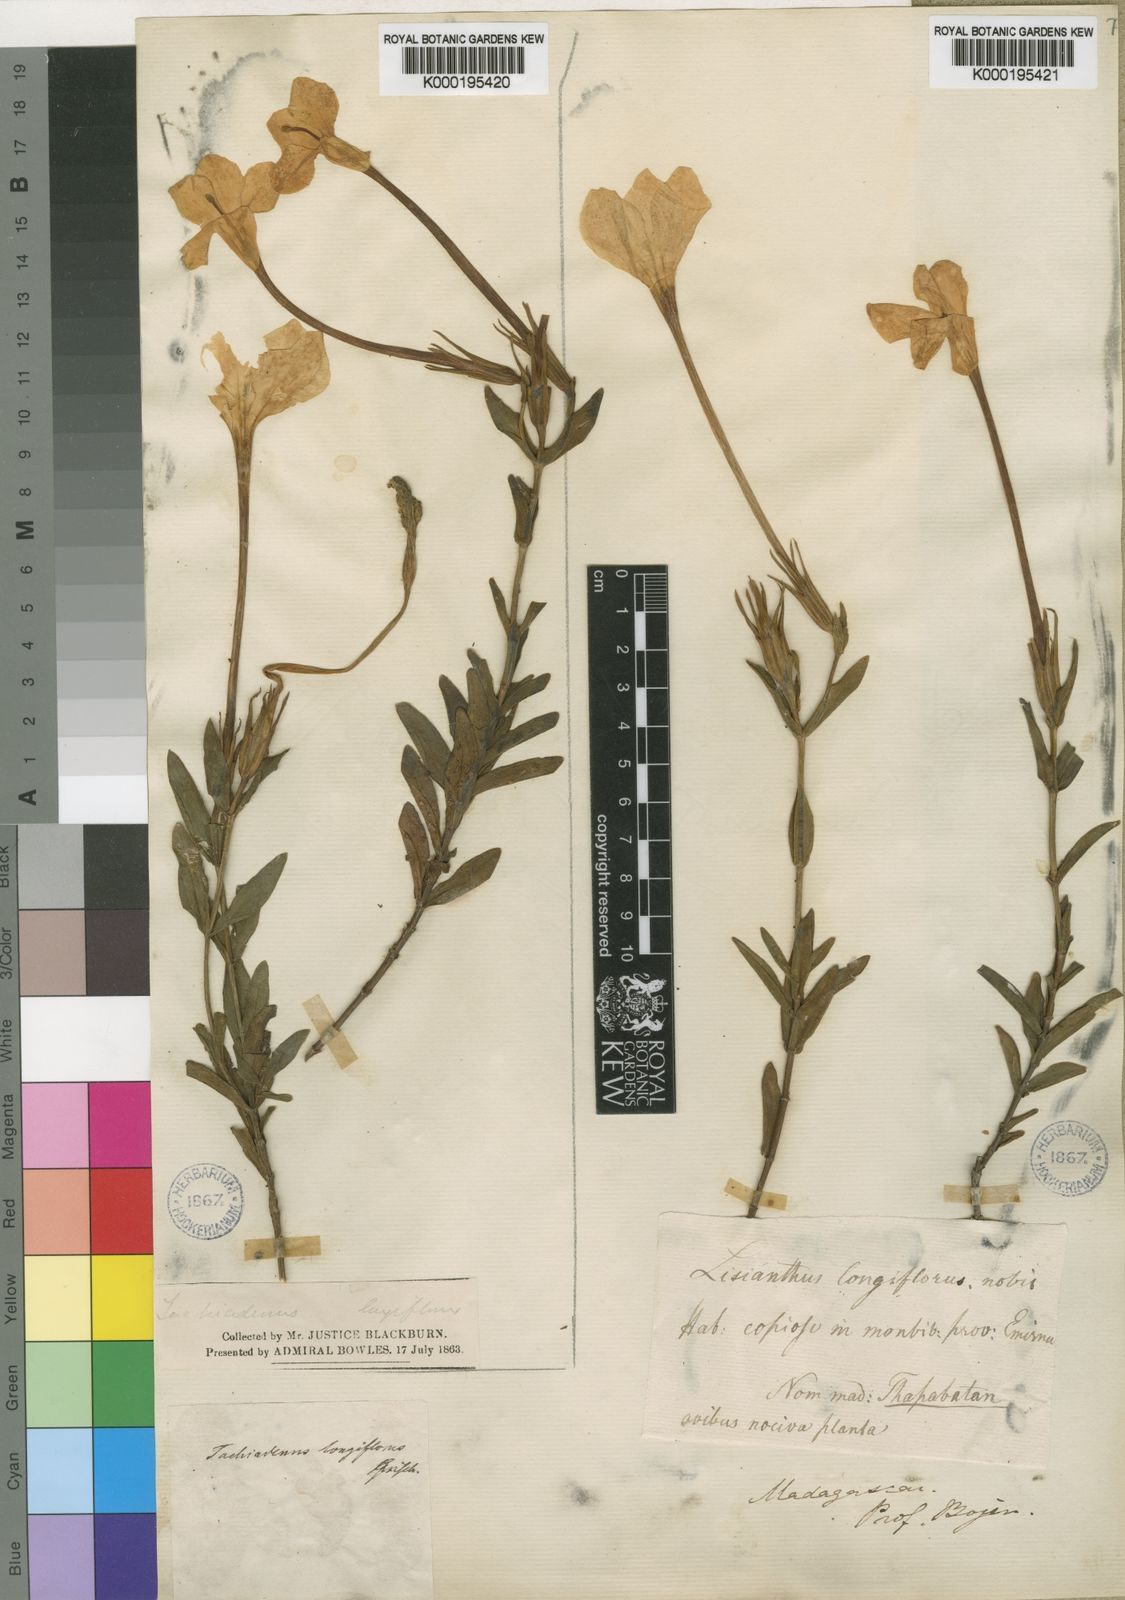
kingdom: Plantae
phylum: Tracheophyta
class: Magnoliopsida
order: Gentianales
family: Gentianaceae
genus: Tachiadenus
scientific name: Tachiadenus longiflorus
